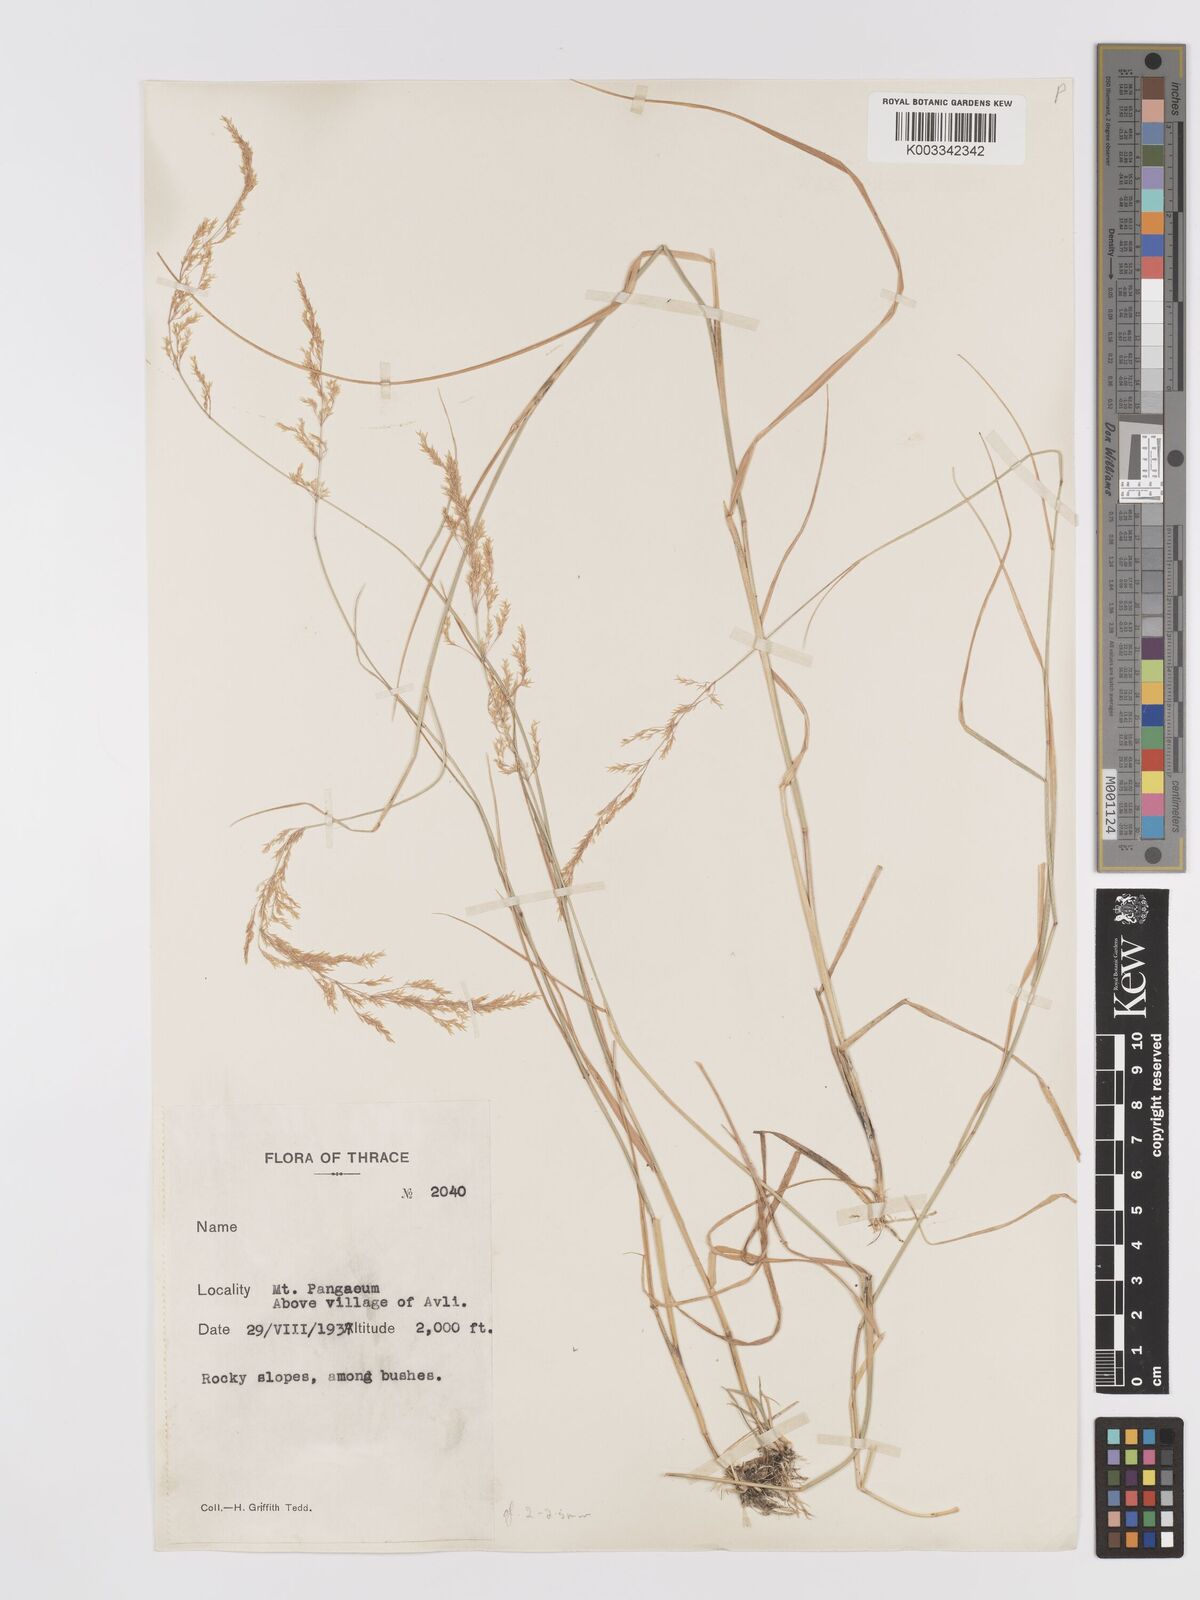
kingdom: Plantae
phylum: Tracheophyta
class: Liliopsida
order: Poales
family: Poaceae
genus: Agrostis
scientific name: Agrostis gigantea
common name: Black bent
